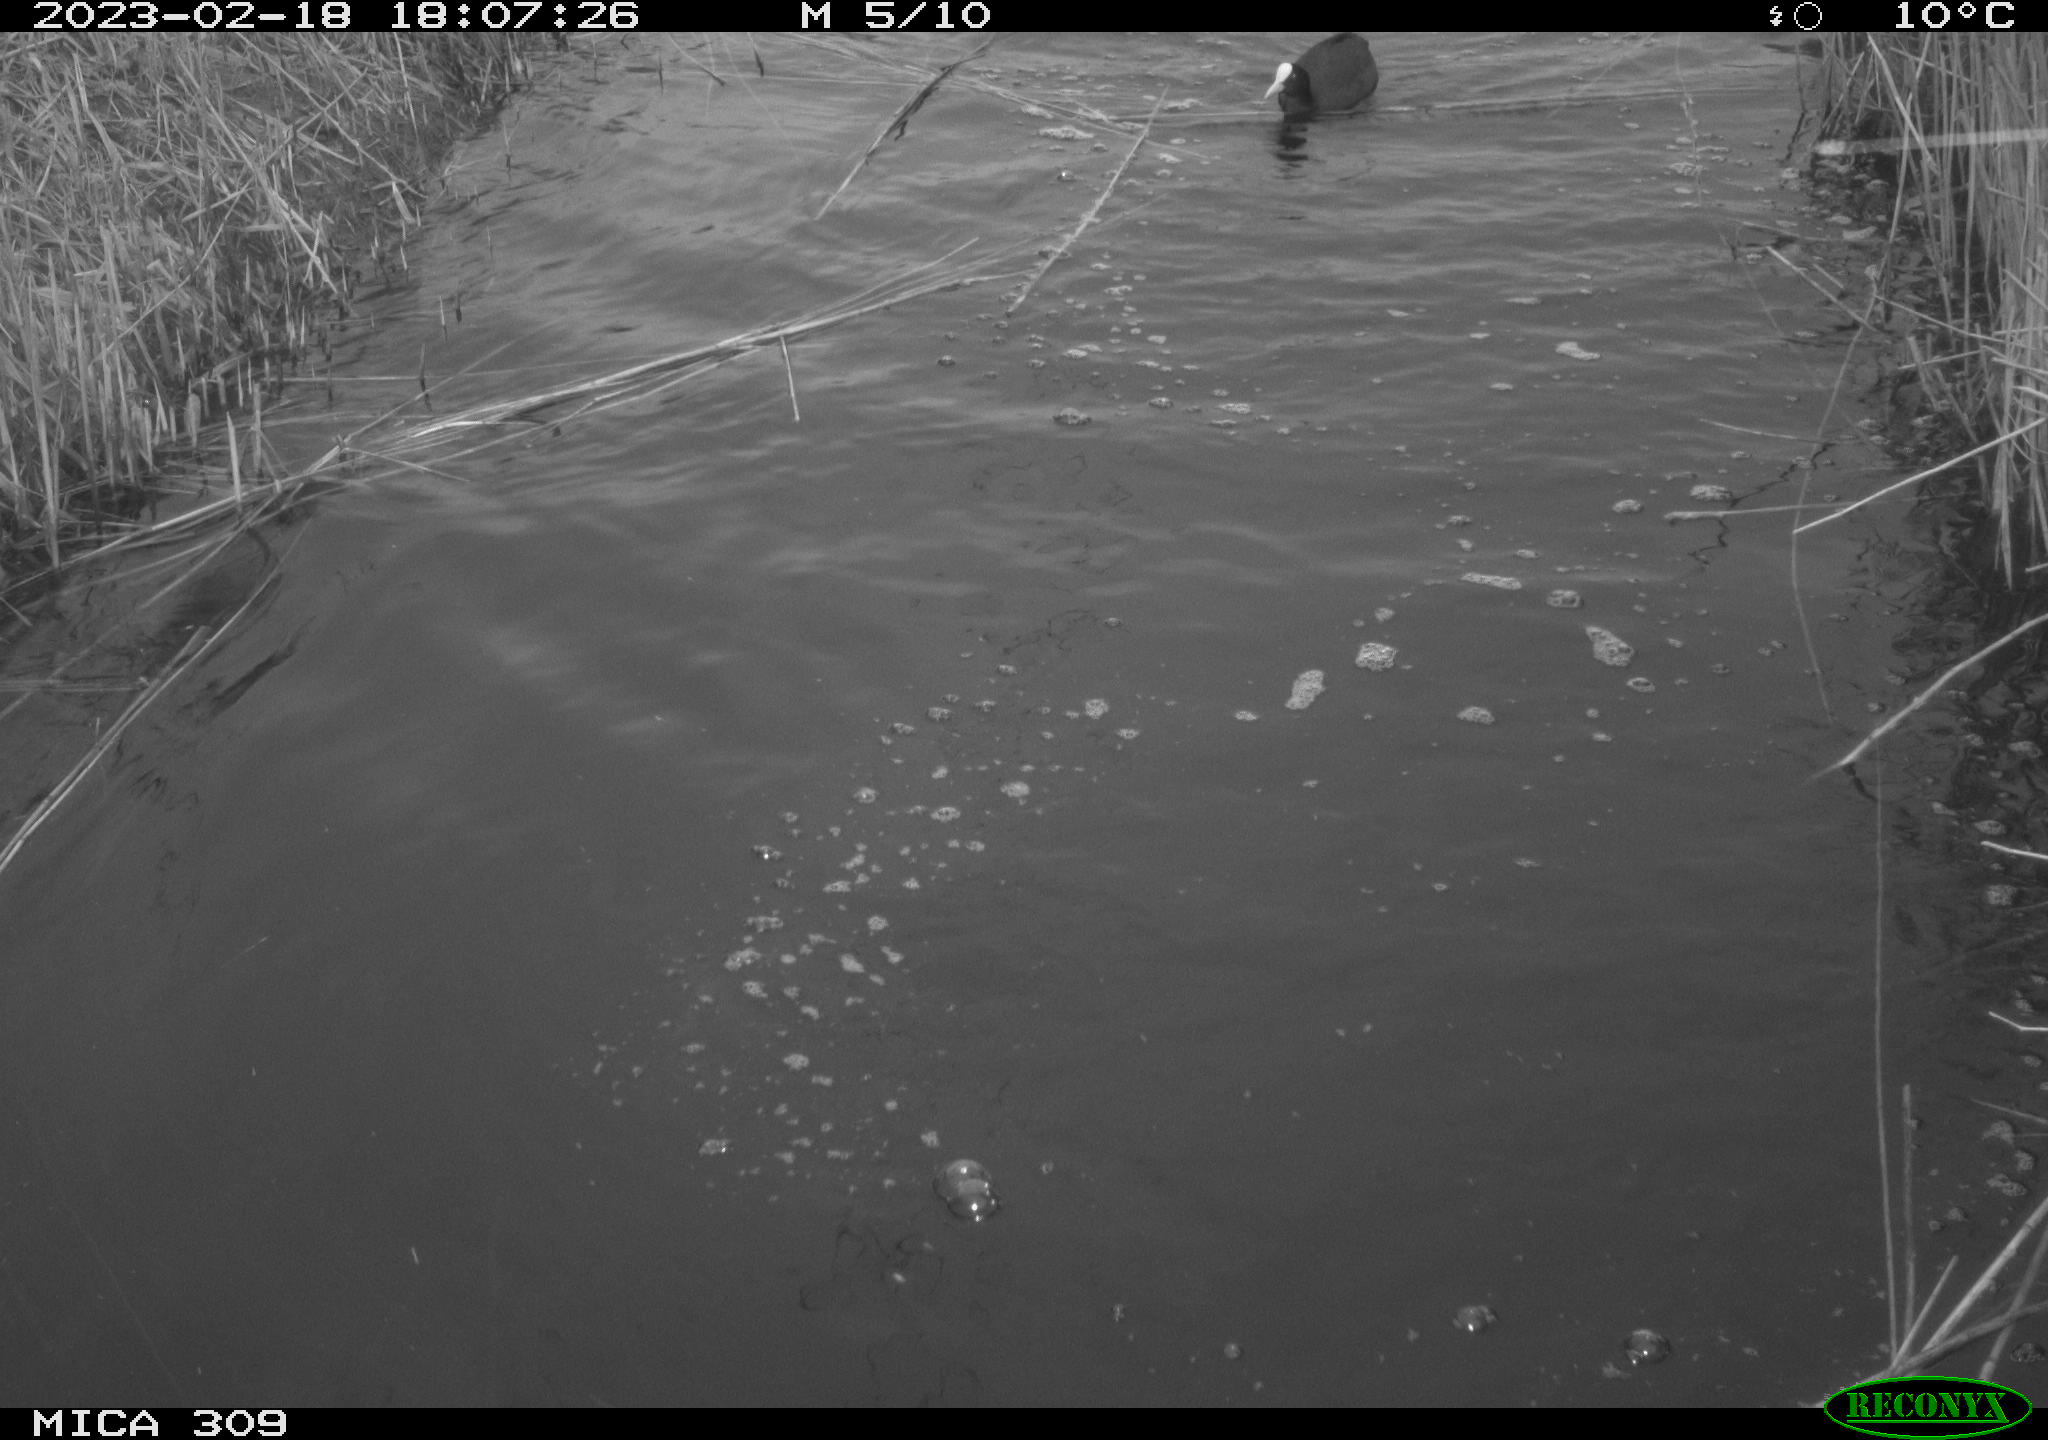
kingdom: Animalia
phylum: Chordata
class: Aves
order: Gruiformes
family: Rallidae
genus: Gallinula
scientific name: Gallinula chloropus
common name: Common moorhen
